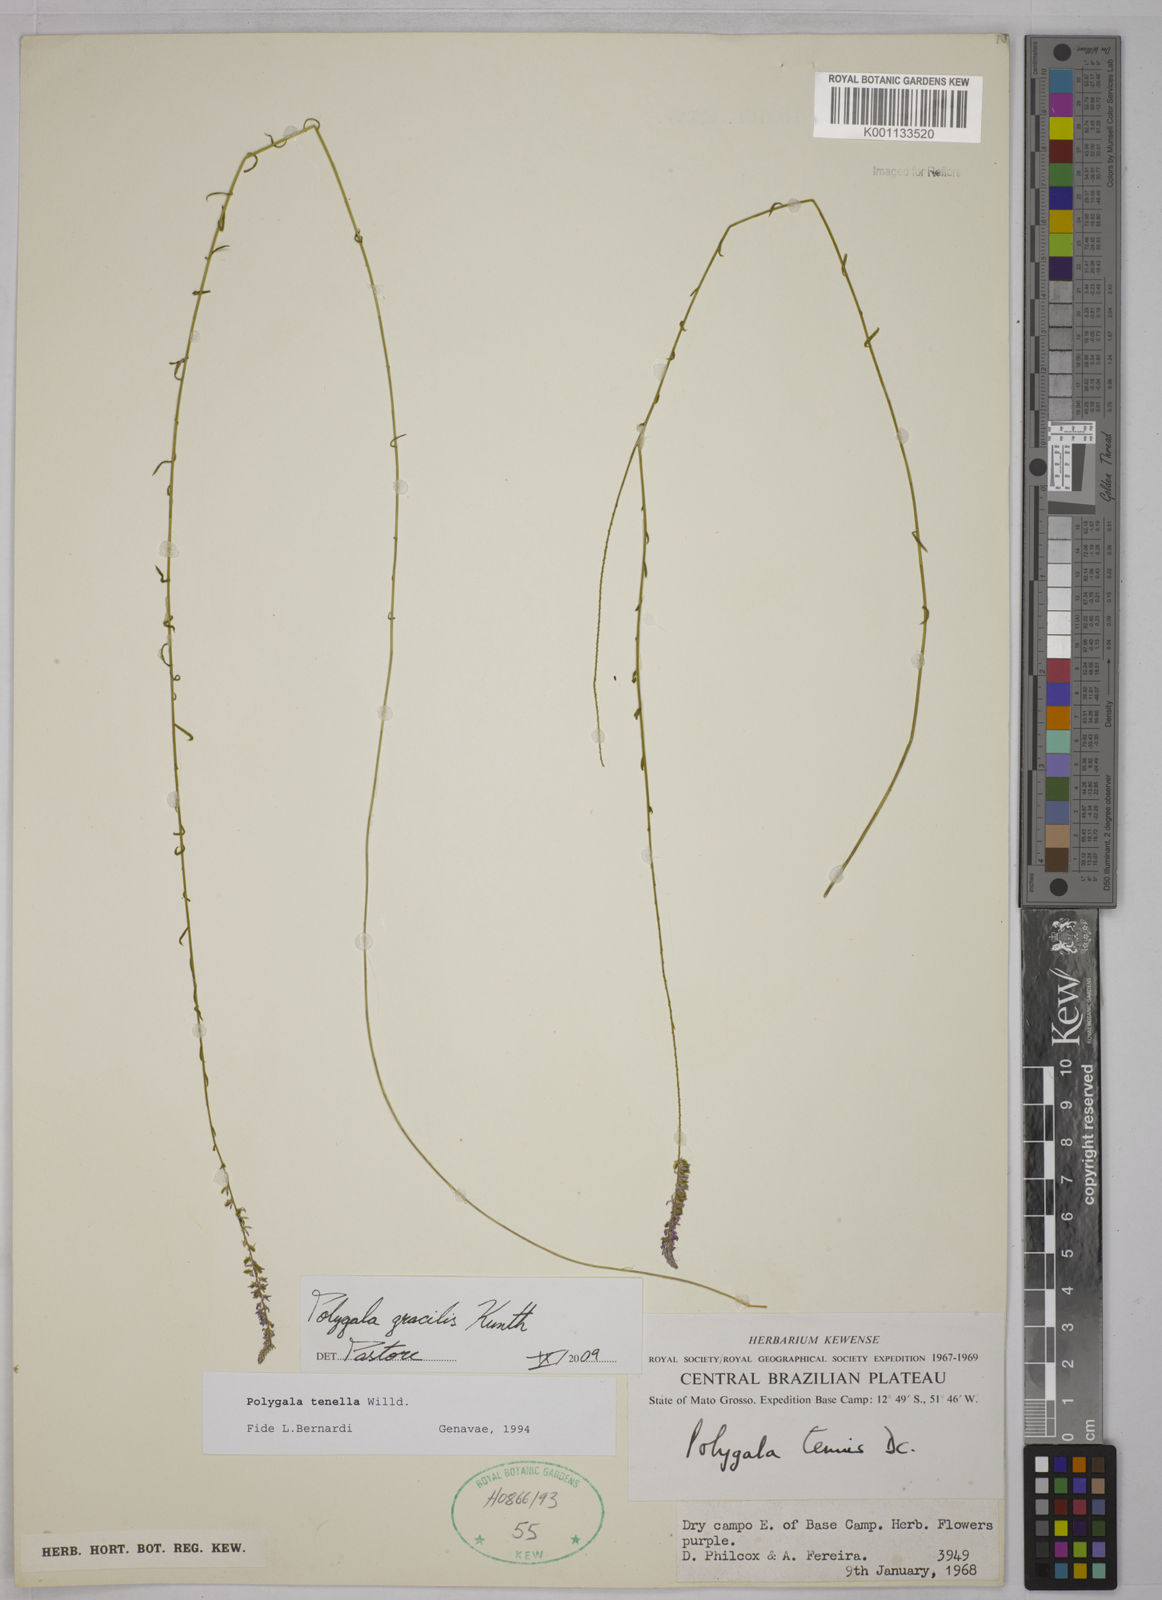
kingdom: Plantae
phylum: Tracheophyta
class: Magnoliopsida
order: Fabales
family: Polygalaceae
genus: Polygala
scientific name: Polygala gracilis
